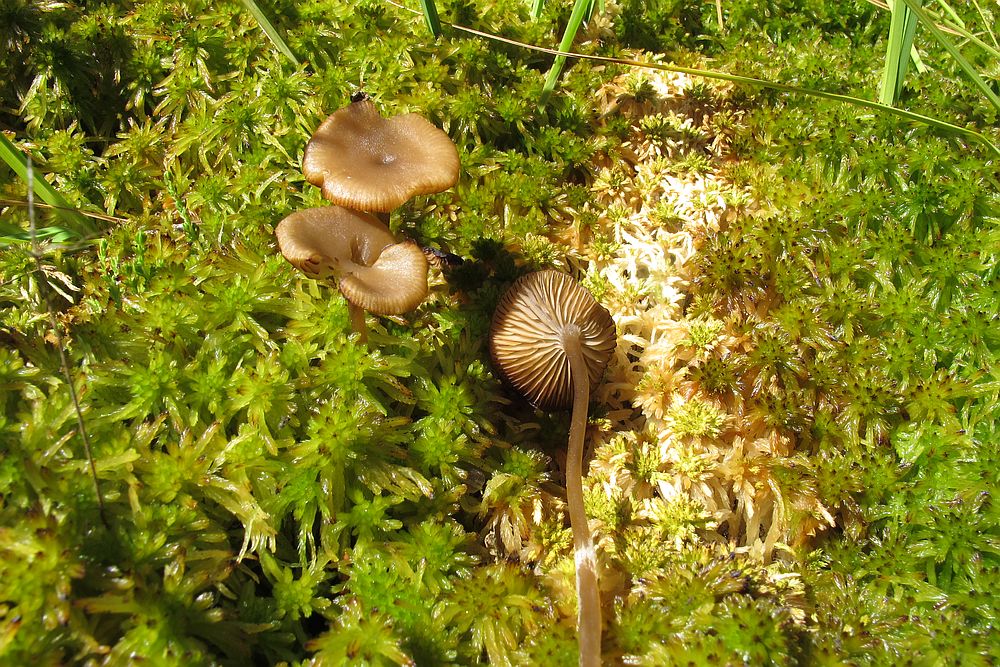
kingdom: Fungi
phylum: Basidiomycota
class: Agaricomycetes
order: Agaricales
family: Lyophyllaceae
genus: Sphagnurus
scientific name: Sphagnurus paluster
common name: tørvemos-gråblad
